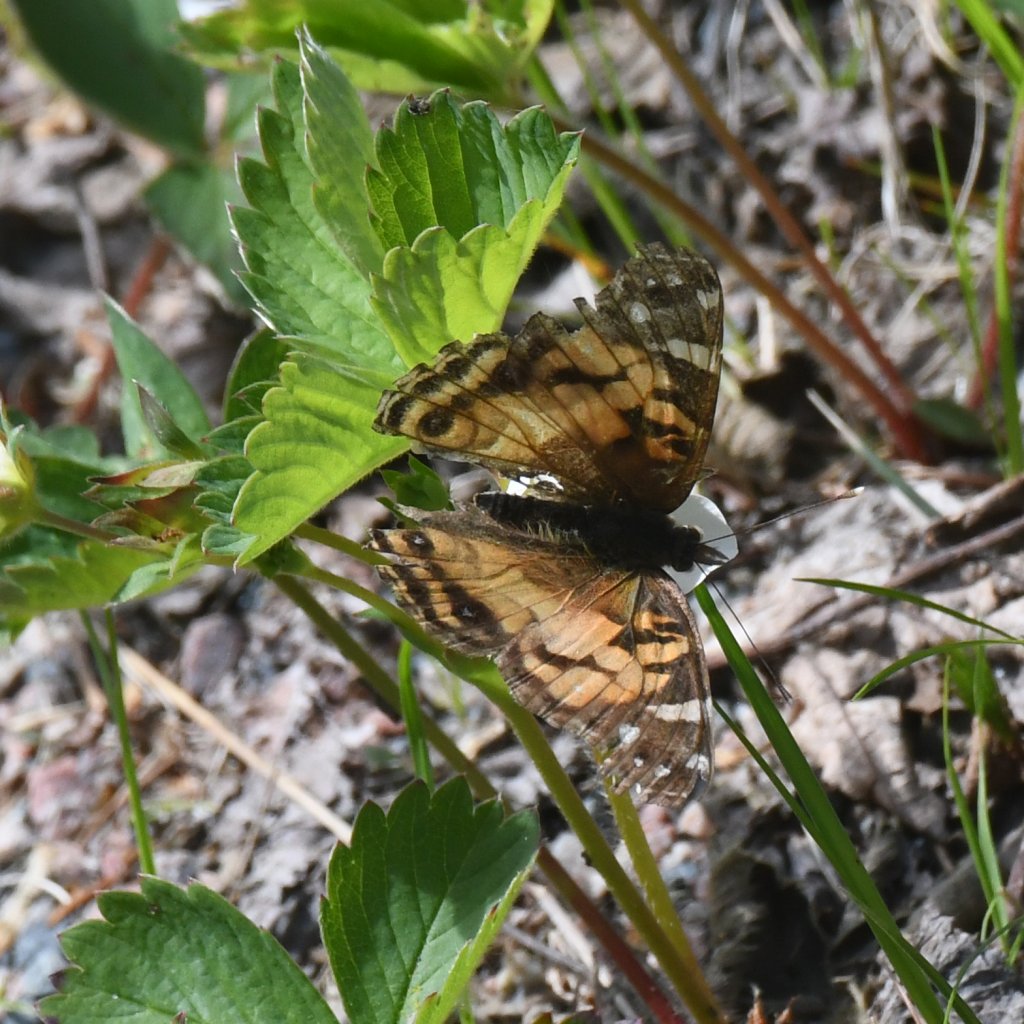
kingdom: Animalia
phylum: Arthropoda
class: Insecta
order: Lepidoptera
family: Nymphalidae
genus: Vanessa
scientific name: Vanessa virginiensis
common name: American Lady
